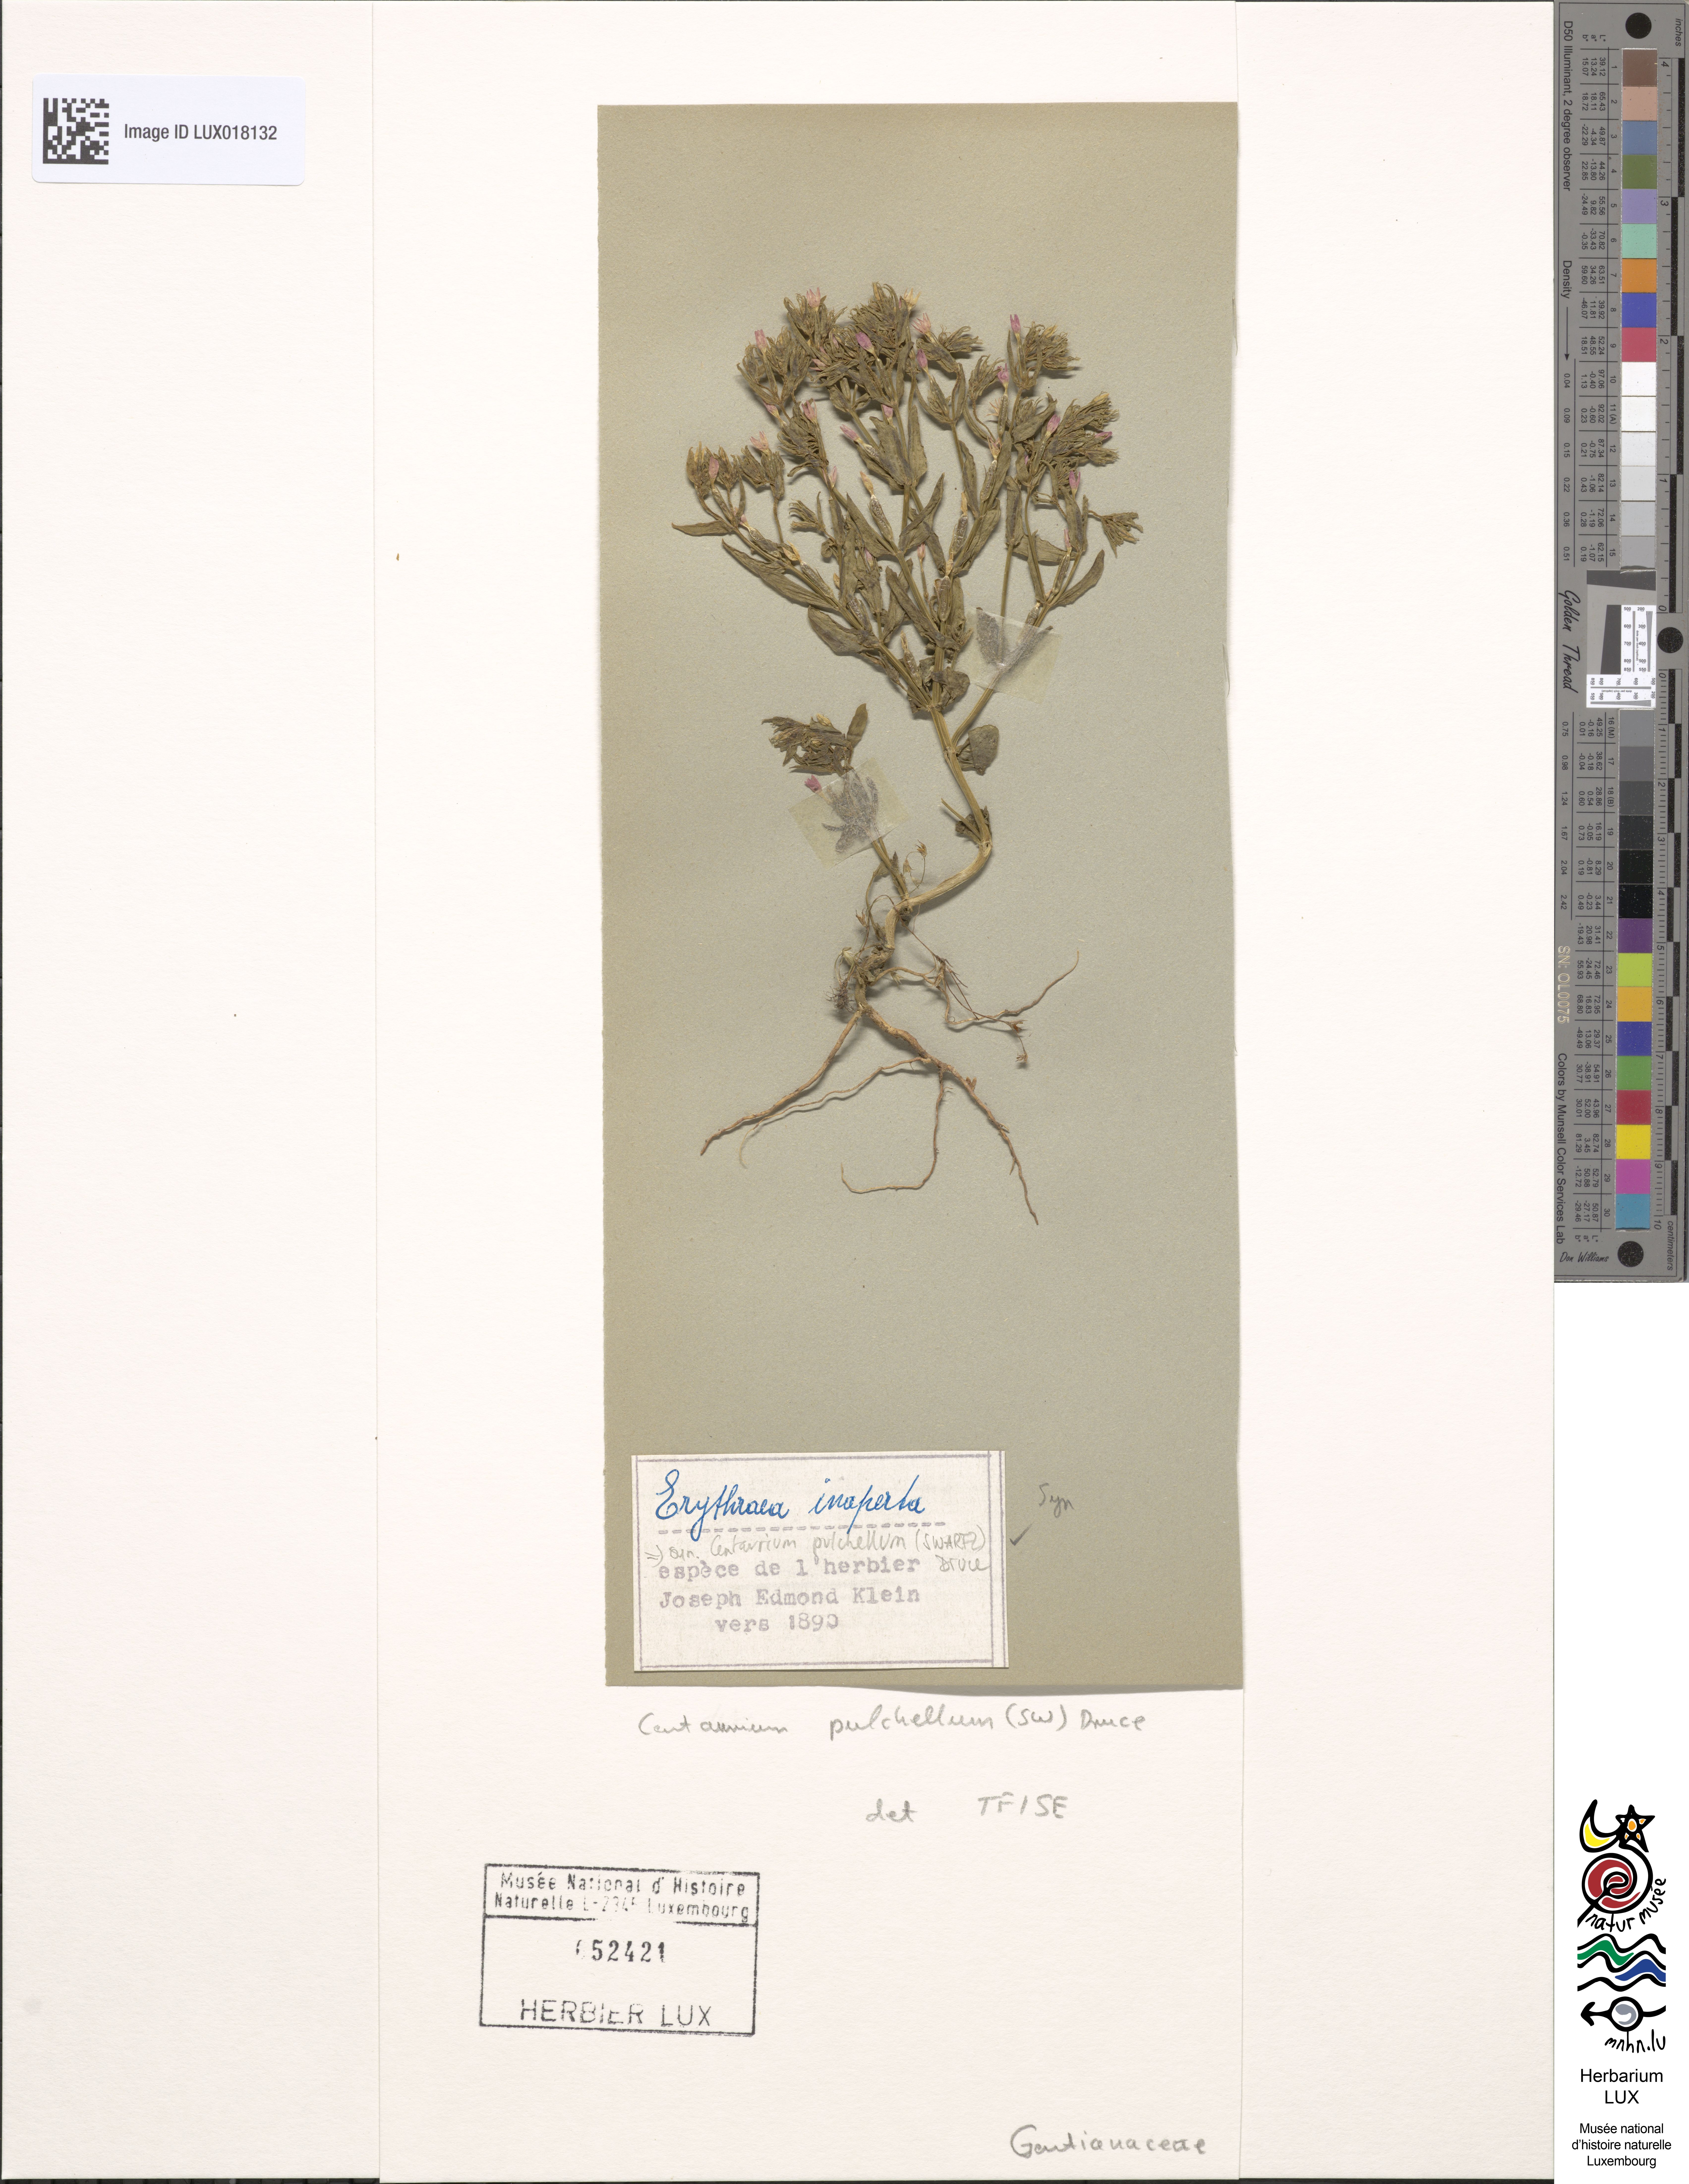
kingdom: Plantae
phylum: Tracheophyta
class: Magnoliopsida
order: Gentianales
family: Gentianaceae
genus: Centaurium
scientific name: Centaurium pulchellum
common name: Lesser centaury
